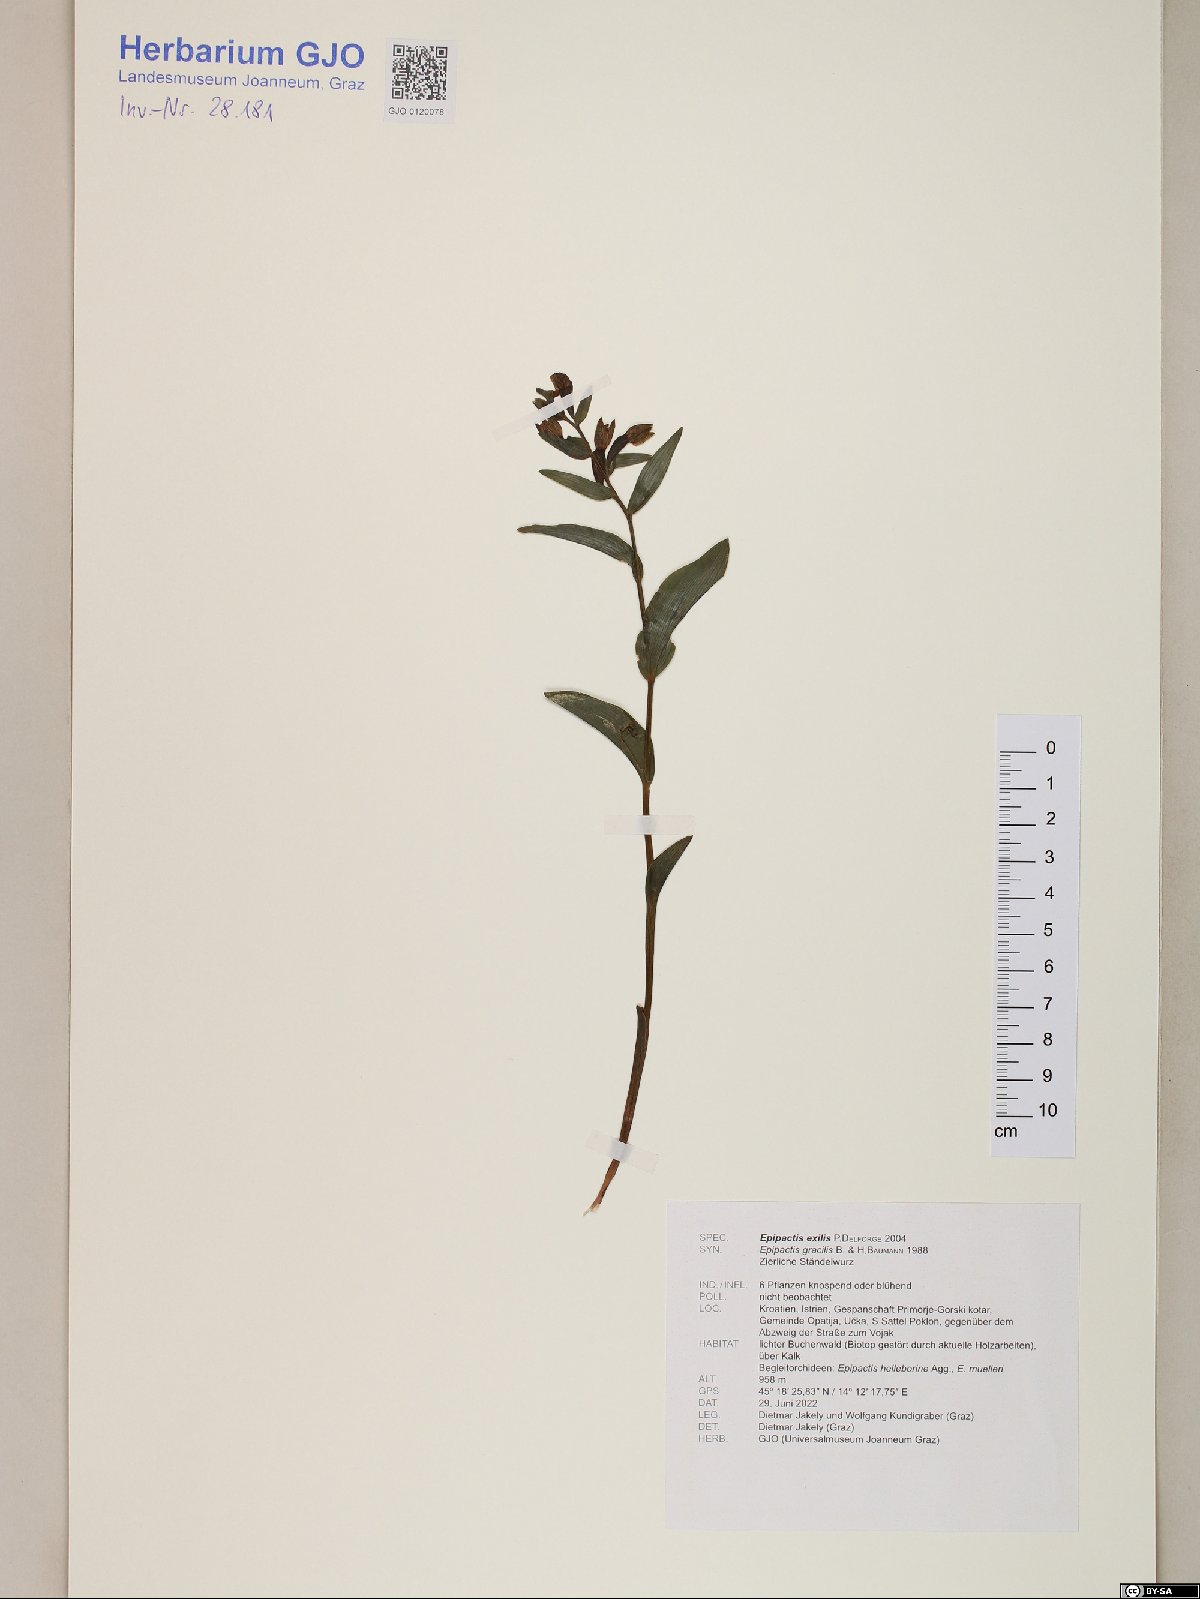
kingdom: Plantae
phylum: Tracheophyta
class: Liliopsida
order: Asparagales
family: Orchidaceae
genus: Epipactis
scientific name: Epipactis persica
